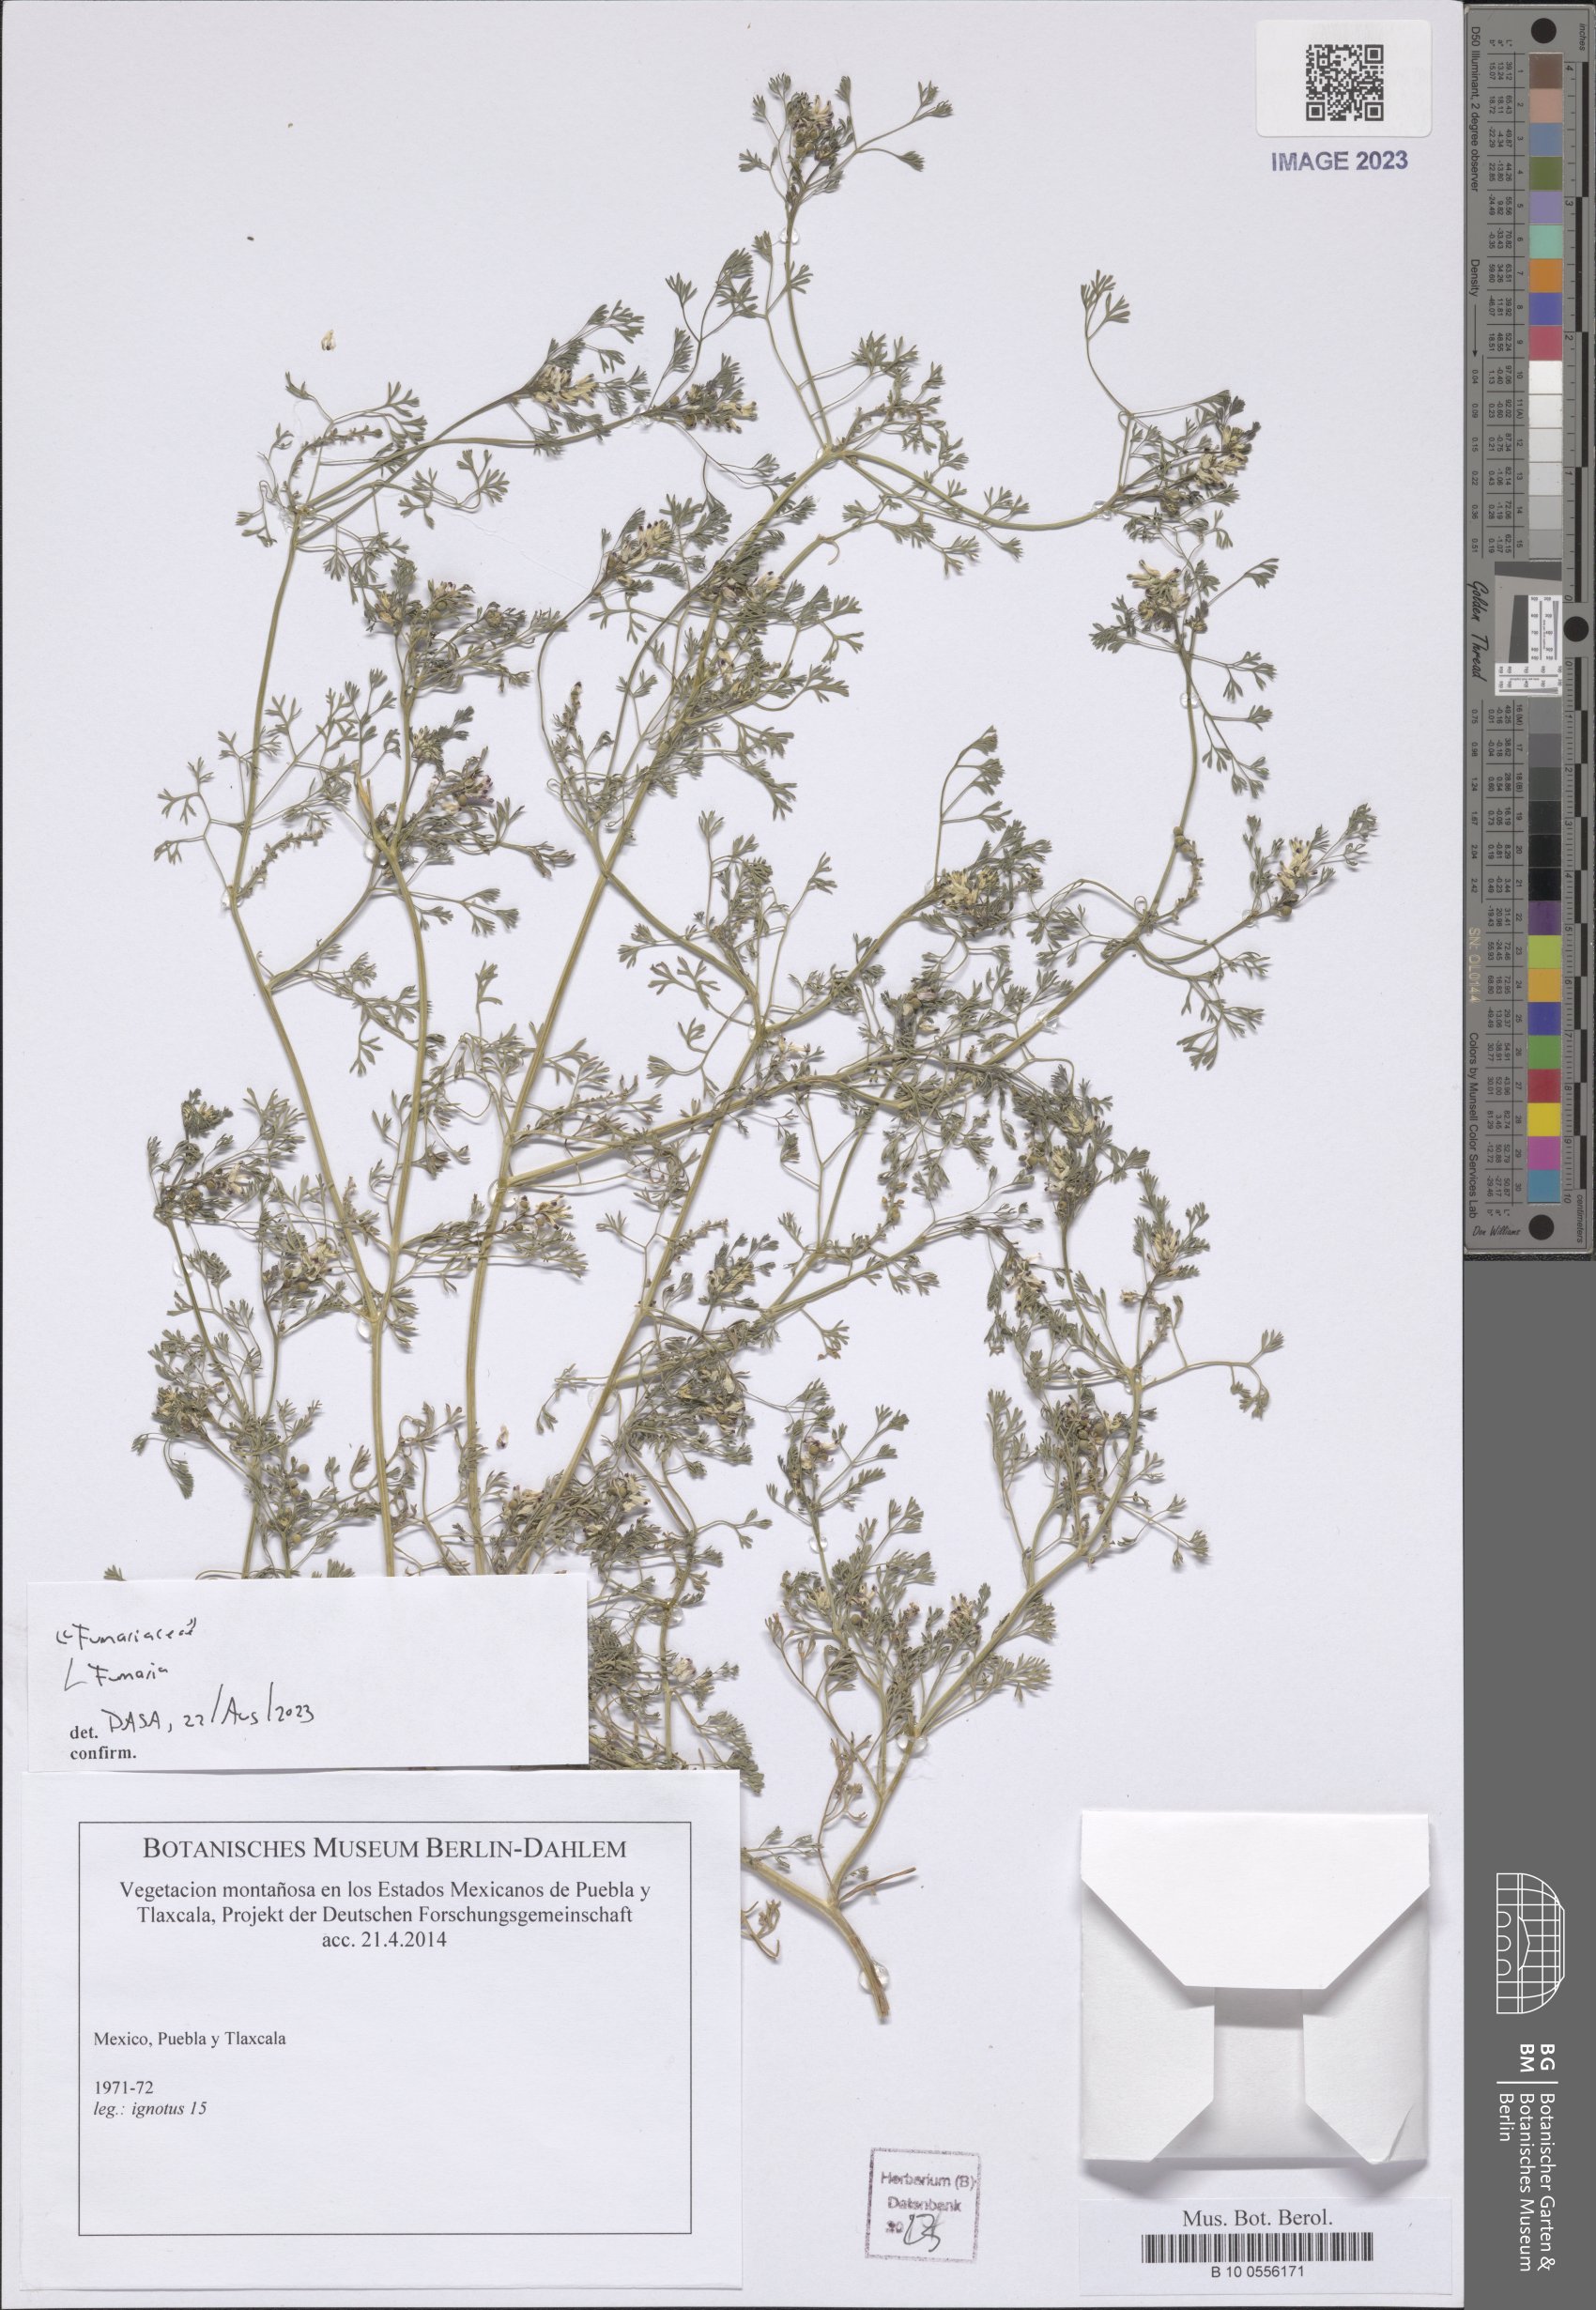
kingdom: Plantae
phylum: Tracheophyta
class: Magnoliopsida
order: Ranunculales
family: Papaveraceae
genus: Fumaria
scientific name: Fumaria
